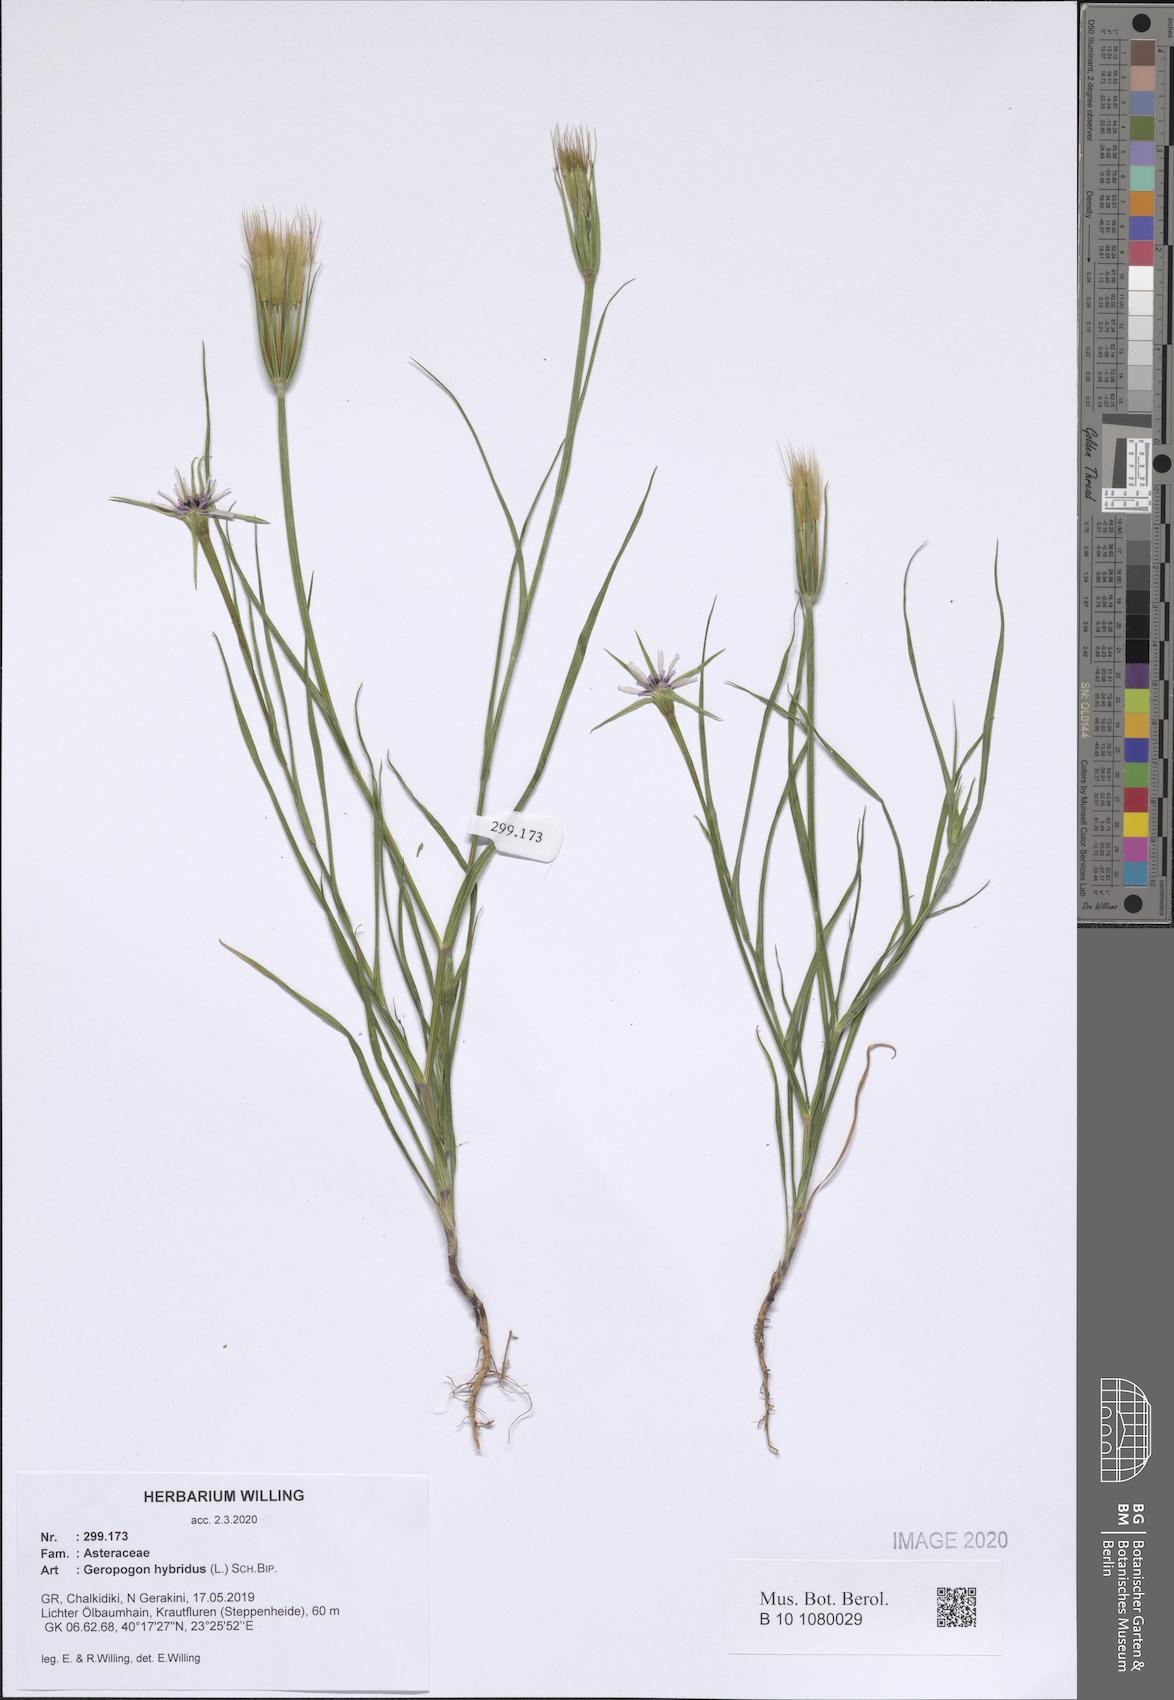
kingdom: Plantae
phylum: Tracheophyta
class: Magnoliopsida
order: Asterales
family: Asteraceae
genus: Geropogon
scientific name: Geropogon hybridus
